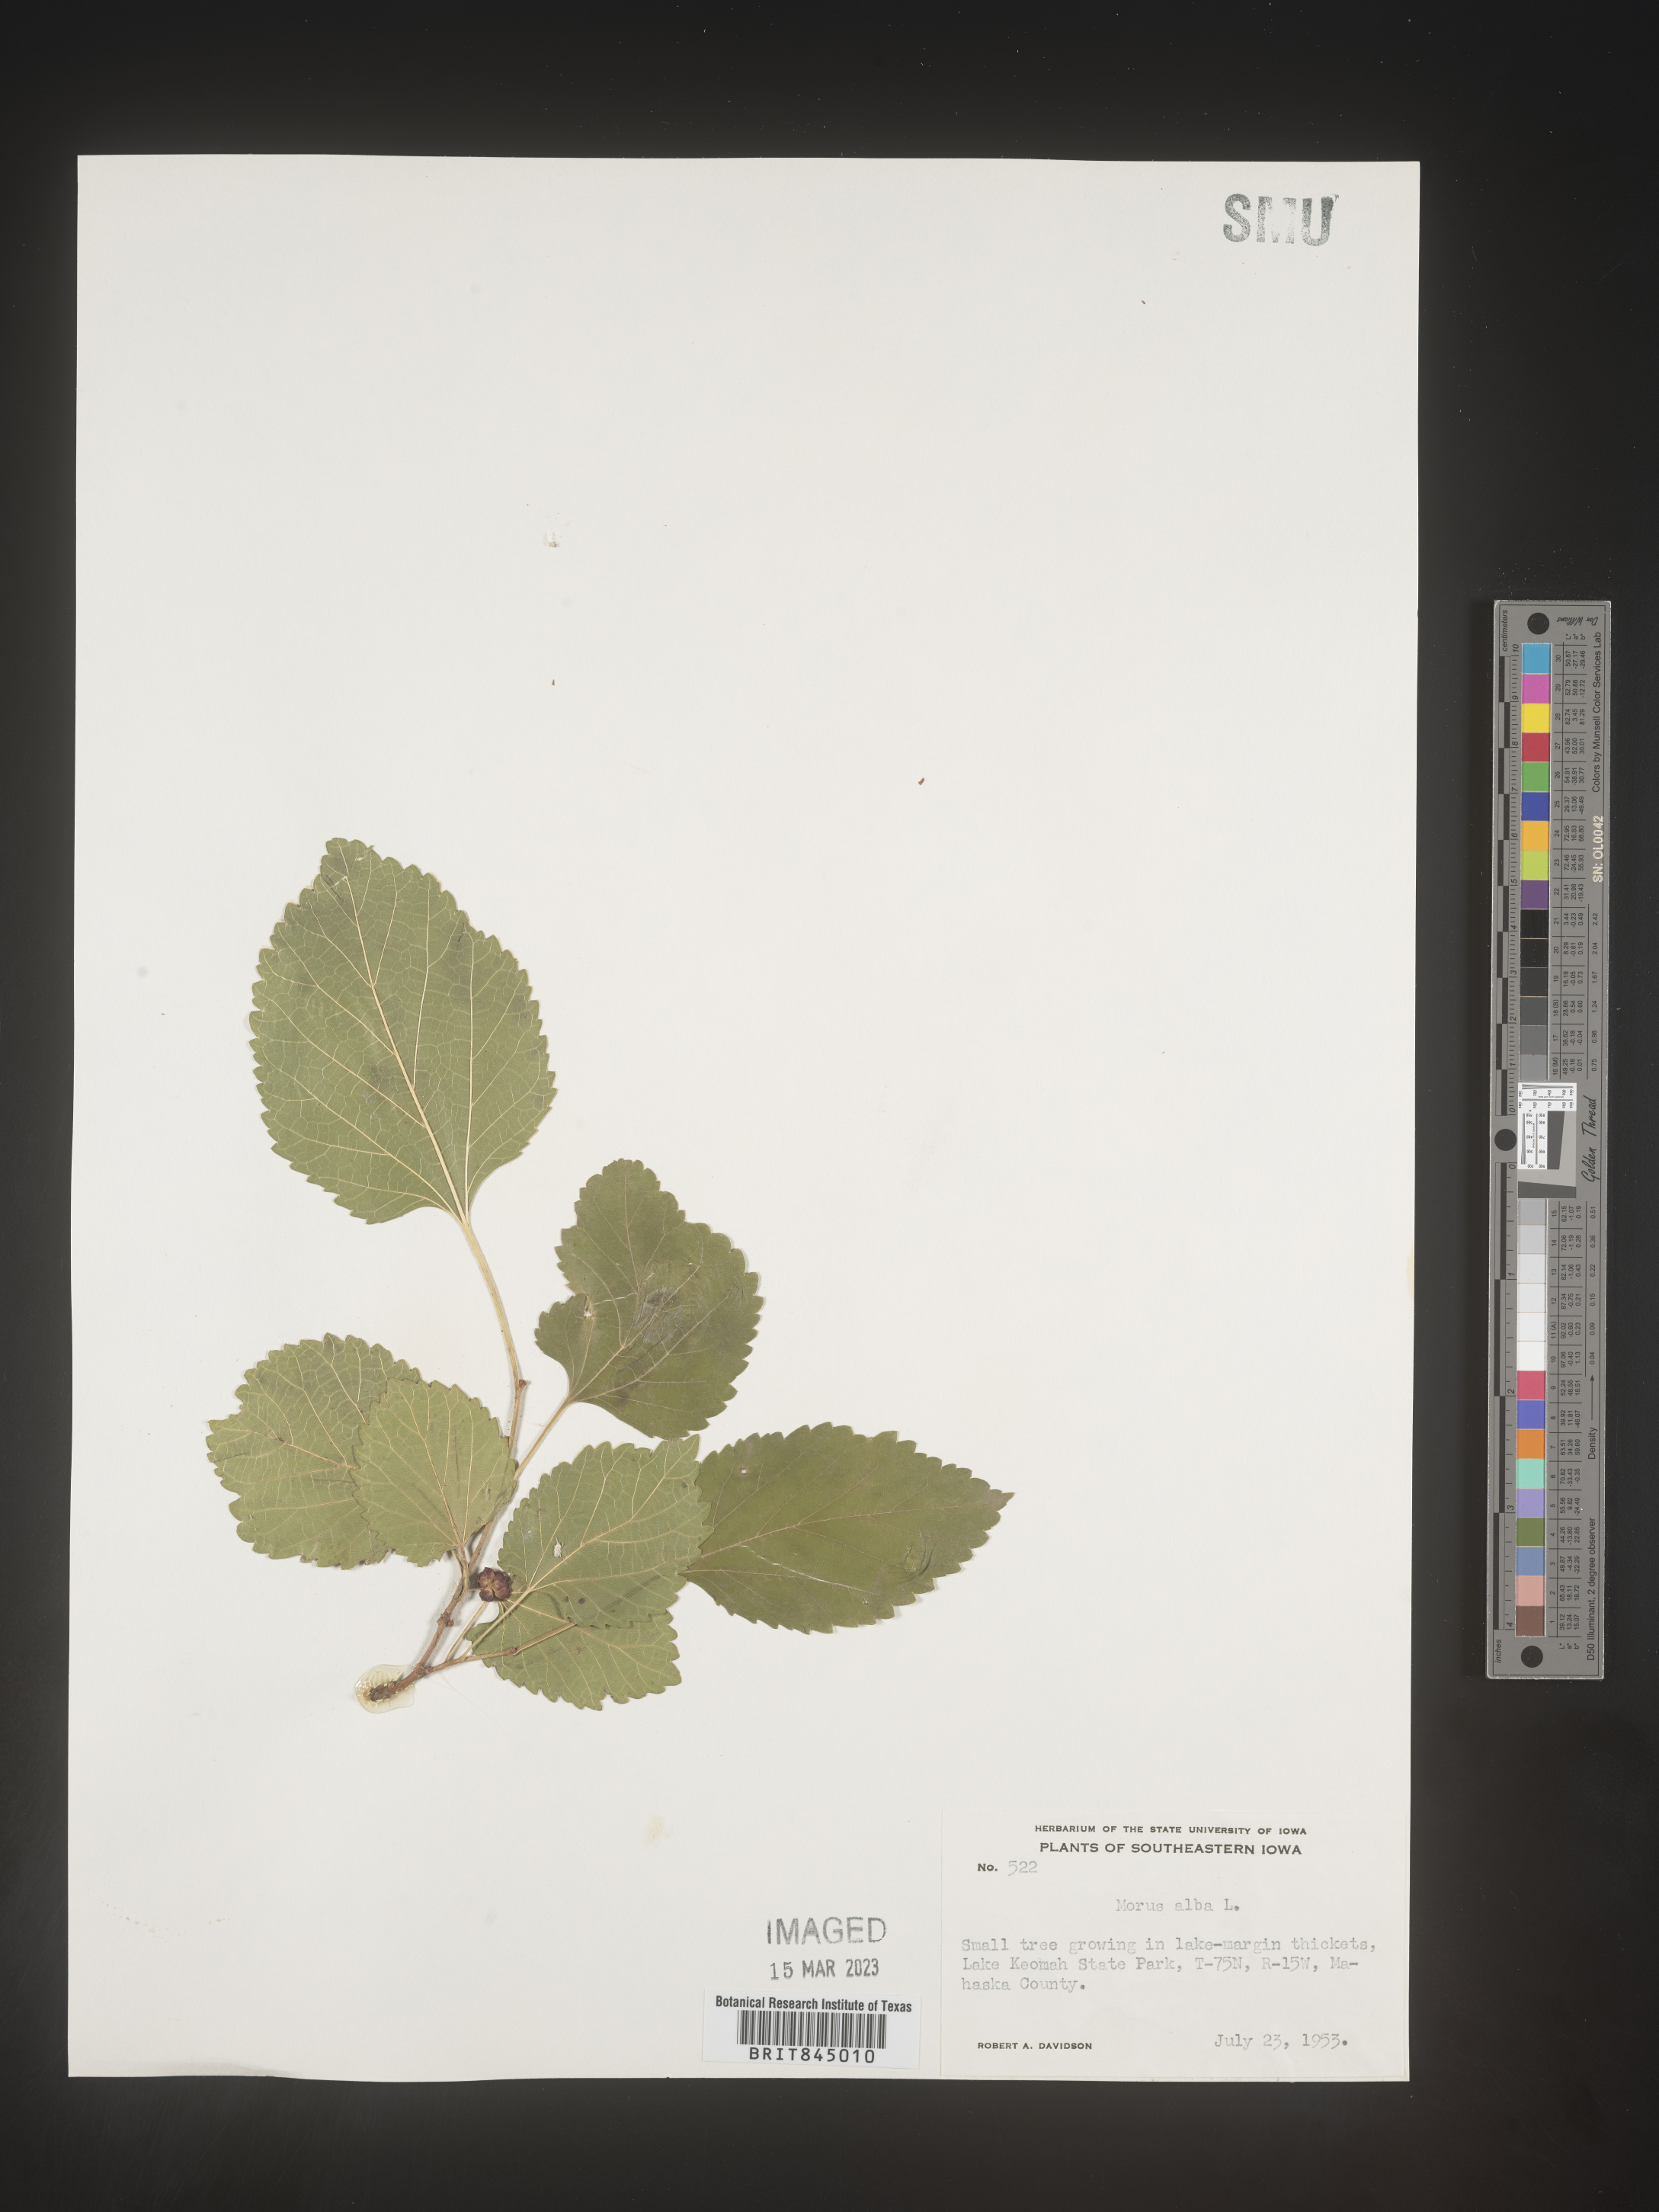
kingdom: Plantae
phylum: Tracheophyta
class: Magnoliopsida
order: Rosales
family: Moraceae
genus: Morus
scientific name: Morus alba
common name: White mulberry
